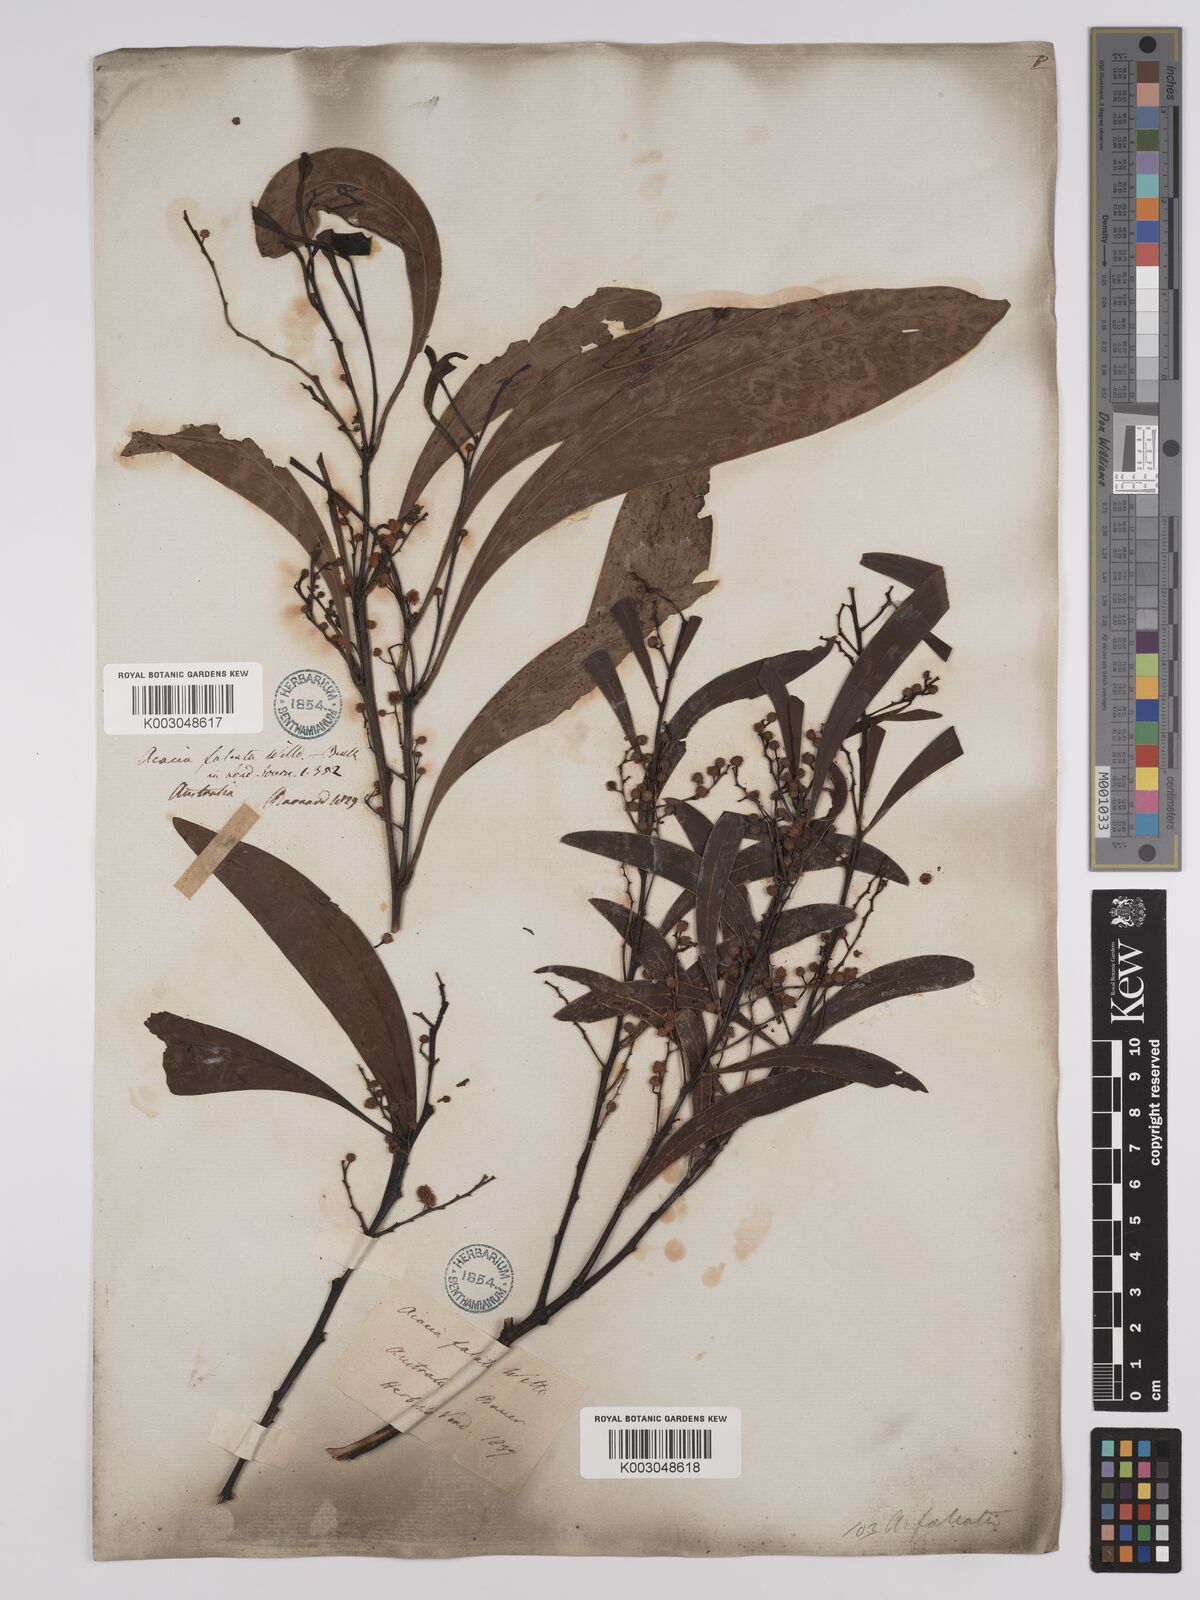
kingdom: Plantae
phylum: Tracheophyta
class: Magnoliopsida
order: Fabales
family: Fabaceae
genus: Acacia
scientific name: Acacia falcata
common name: Burra acacia
